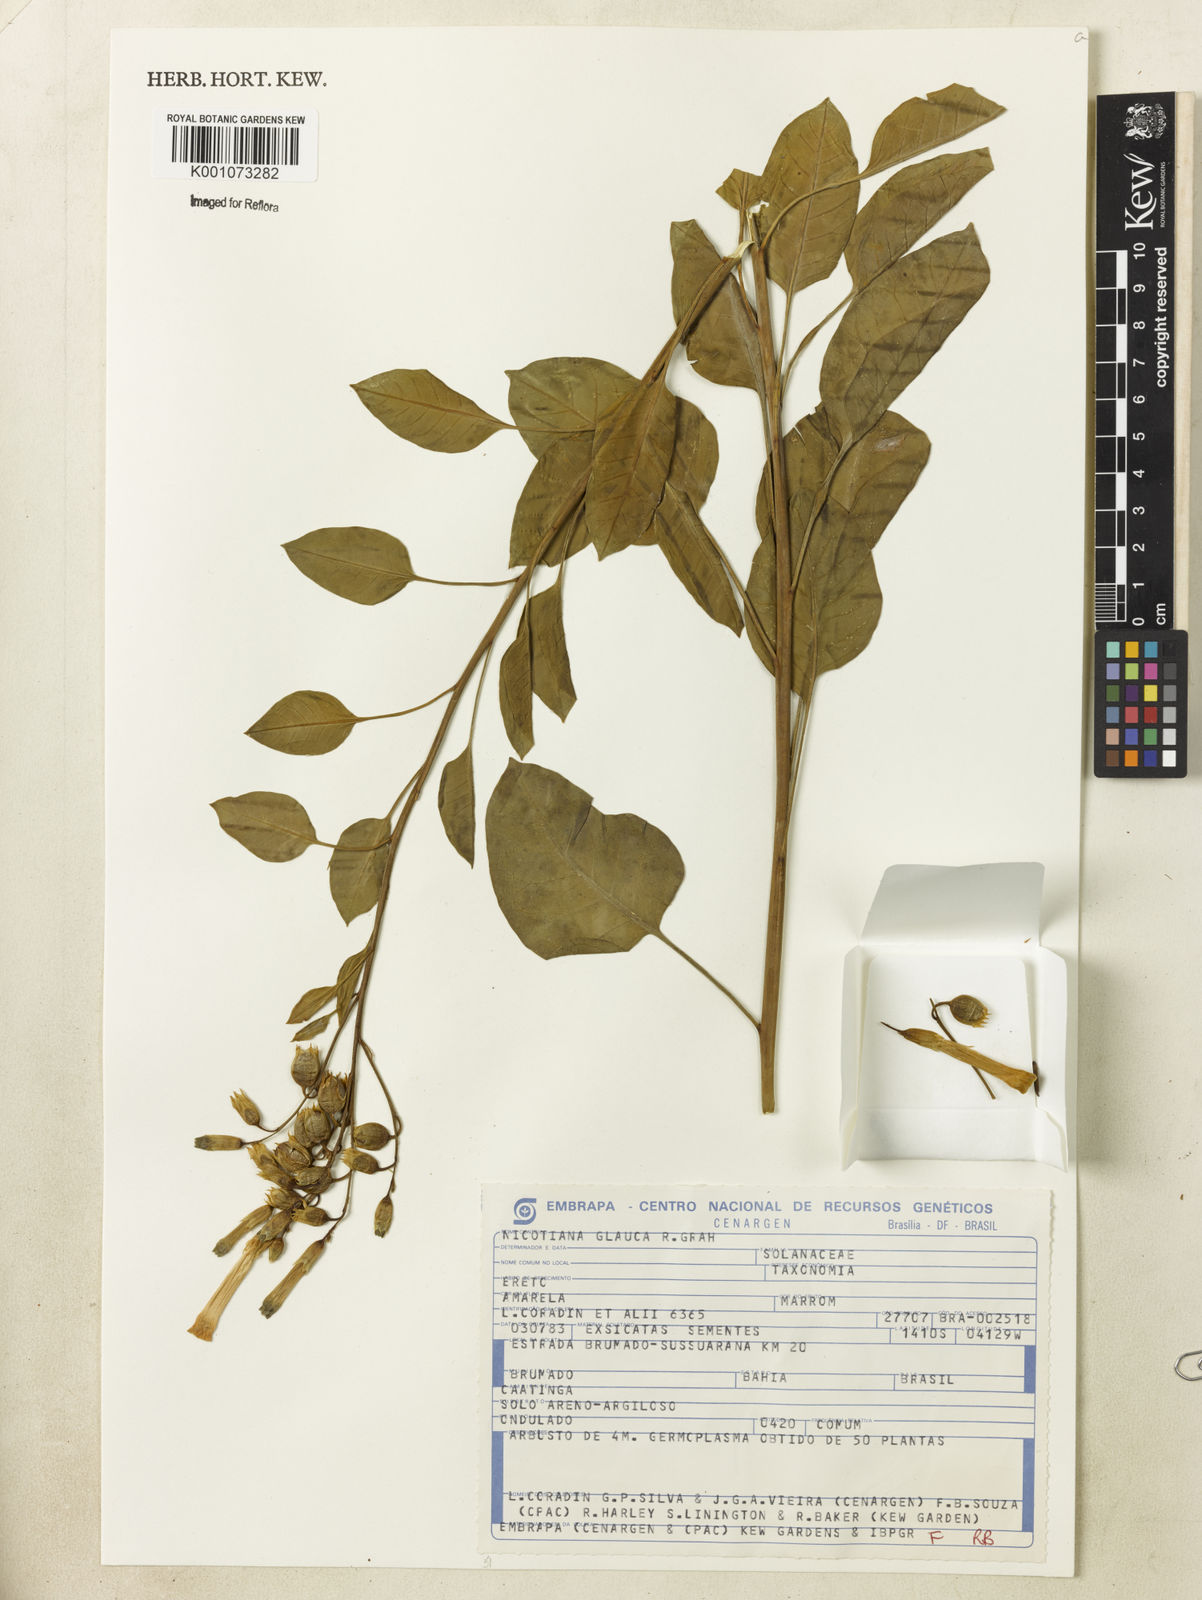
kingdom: Plantae
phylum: Tracheophyta
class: Magnoliopsida
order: Solanales
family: Solanaceae
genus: Nicotiana
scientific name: Nicotiana glauca
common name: Tree tobacco
